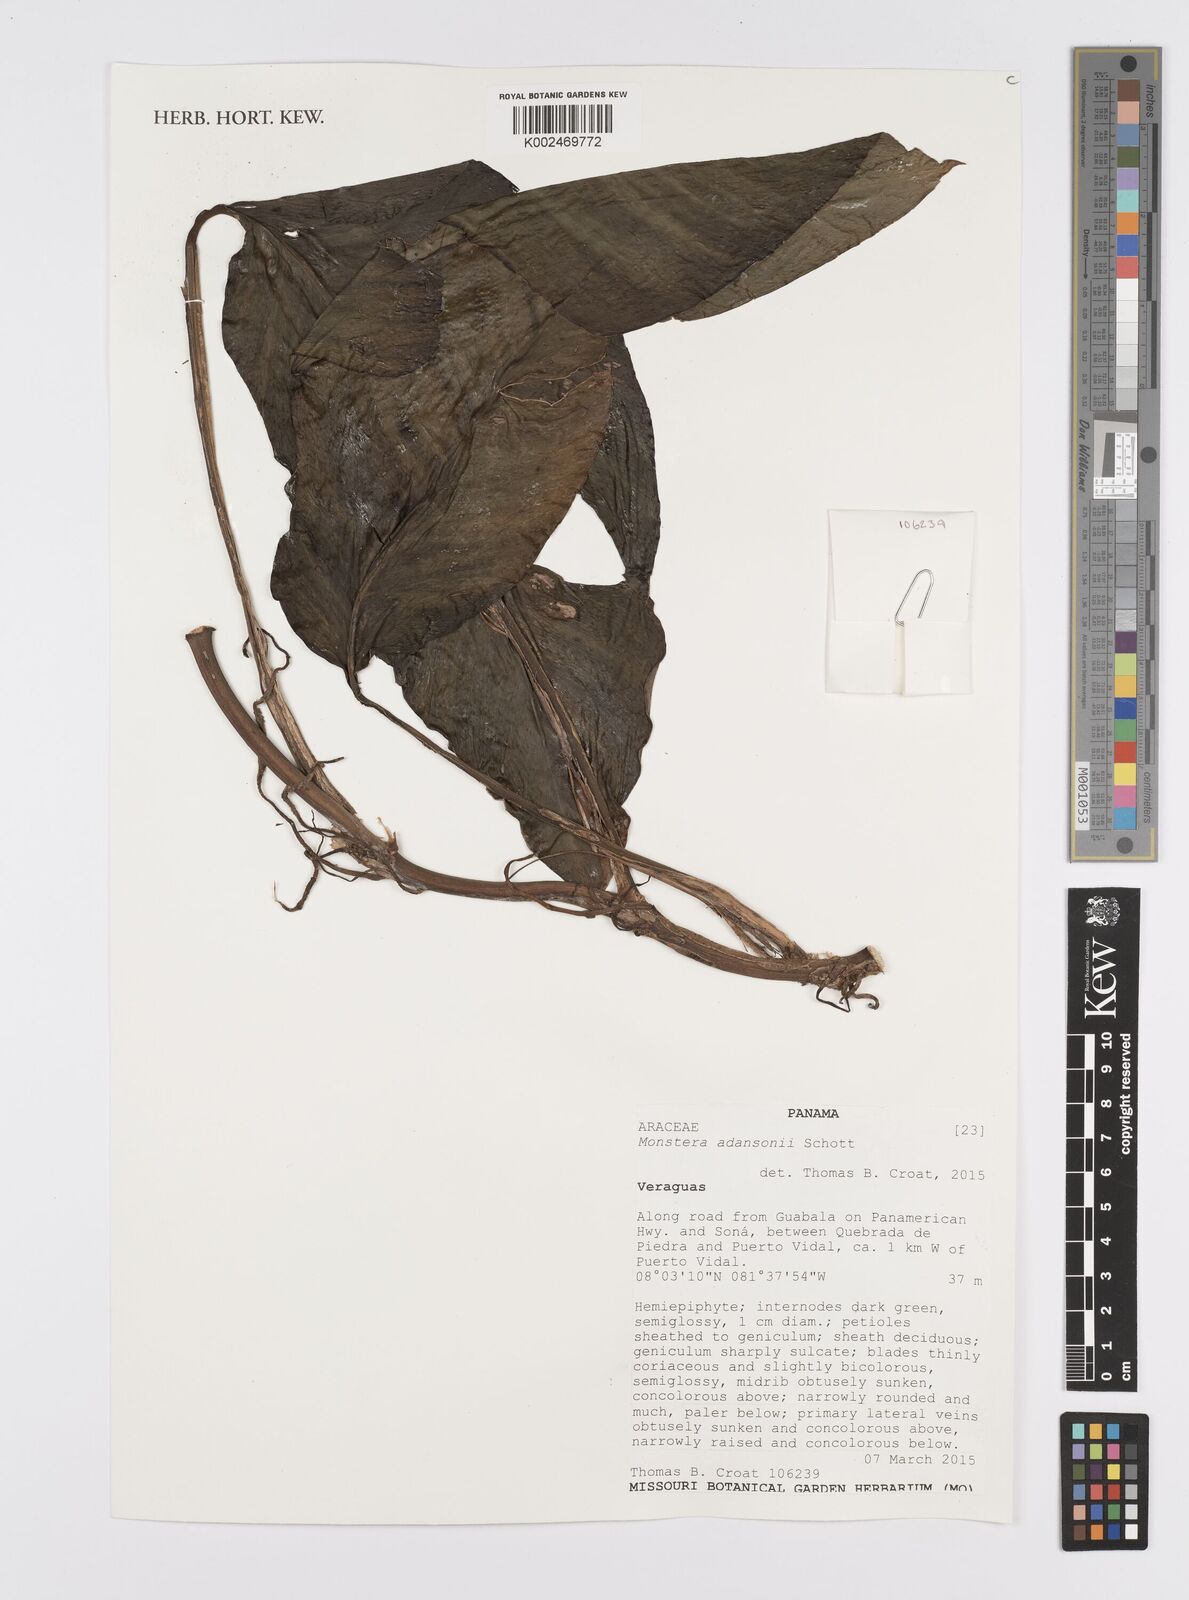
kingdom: Plantae
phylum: Tracheophyta
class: Liliopsida
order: Alismatales
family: Araceae
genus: Monstera
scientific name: Monstera adansonii
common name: Tarovine
